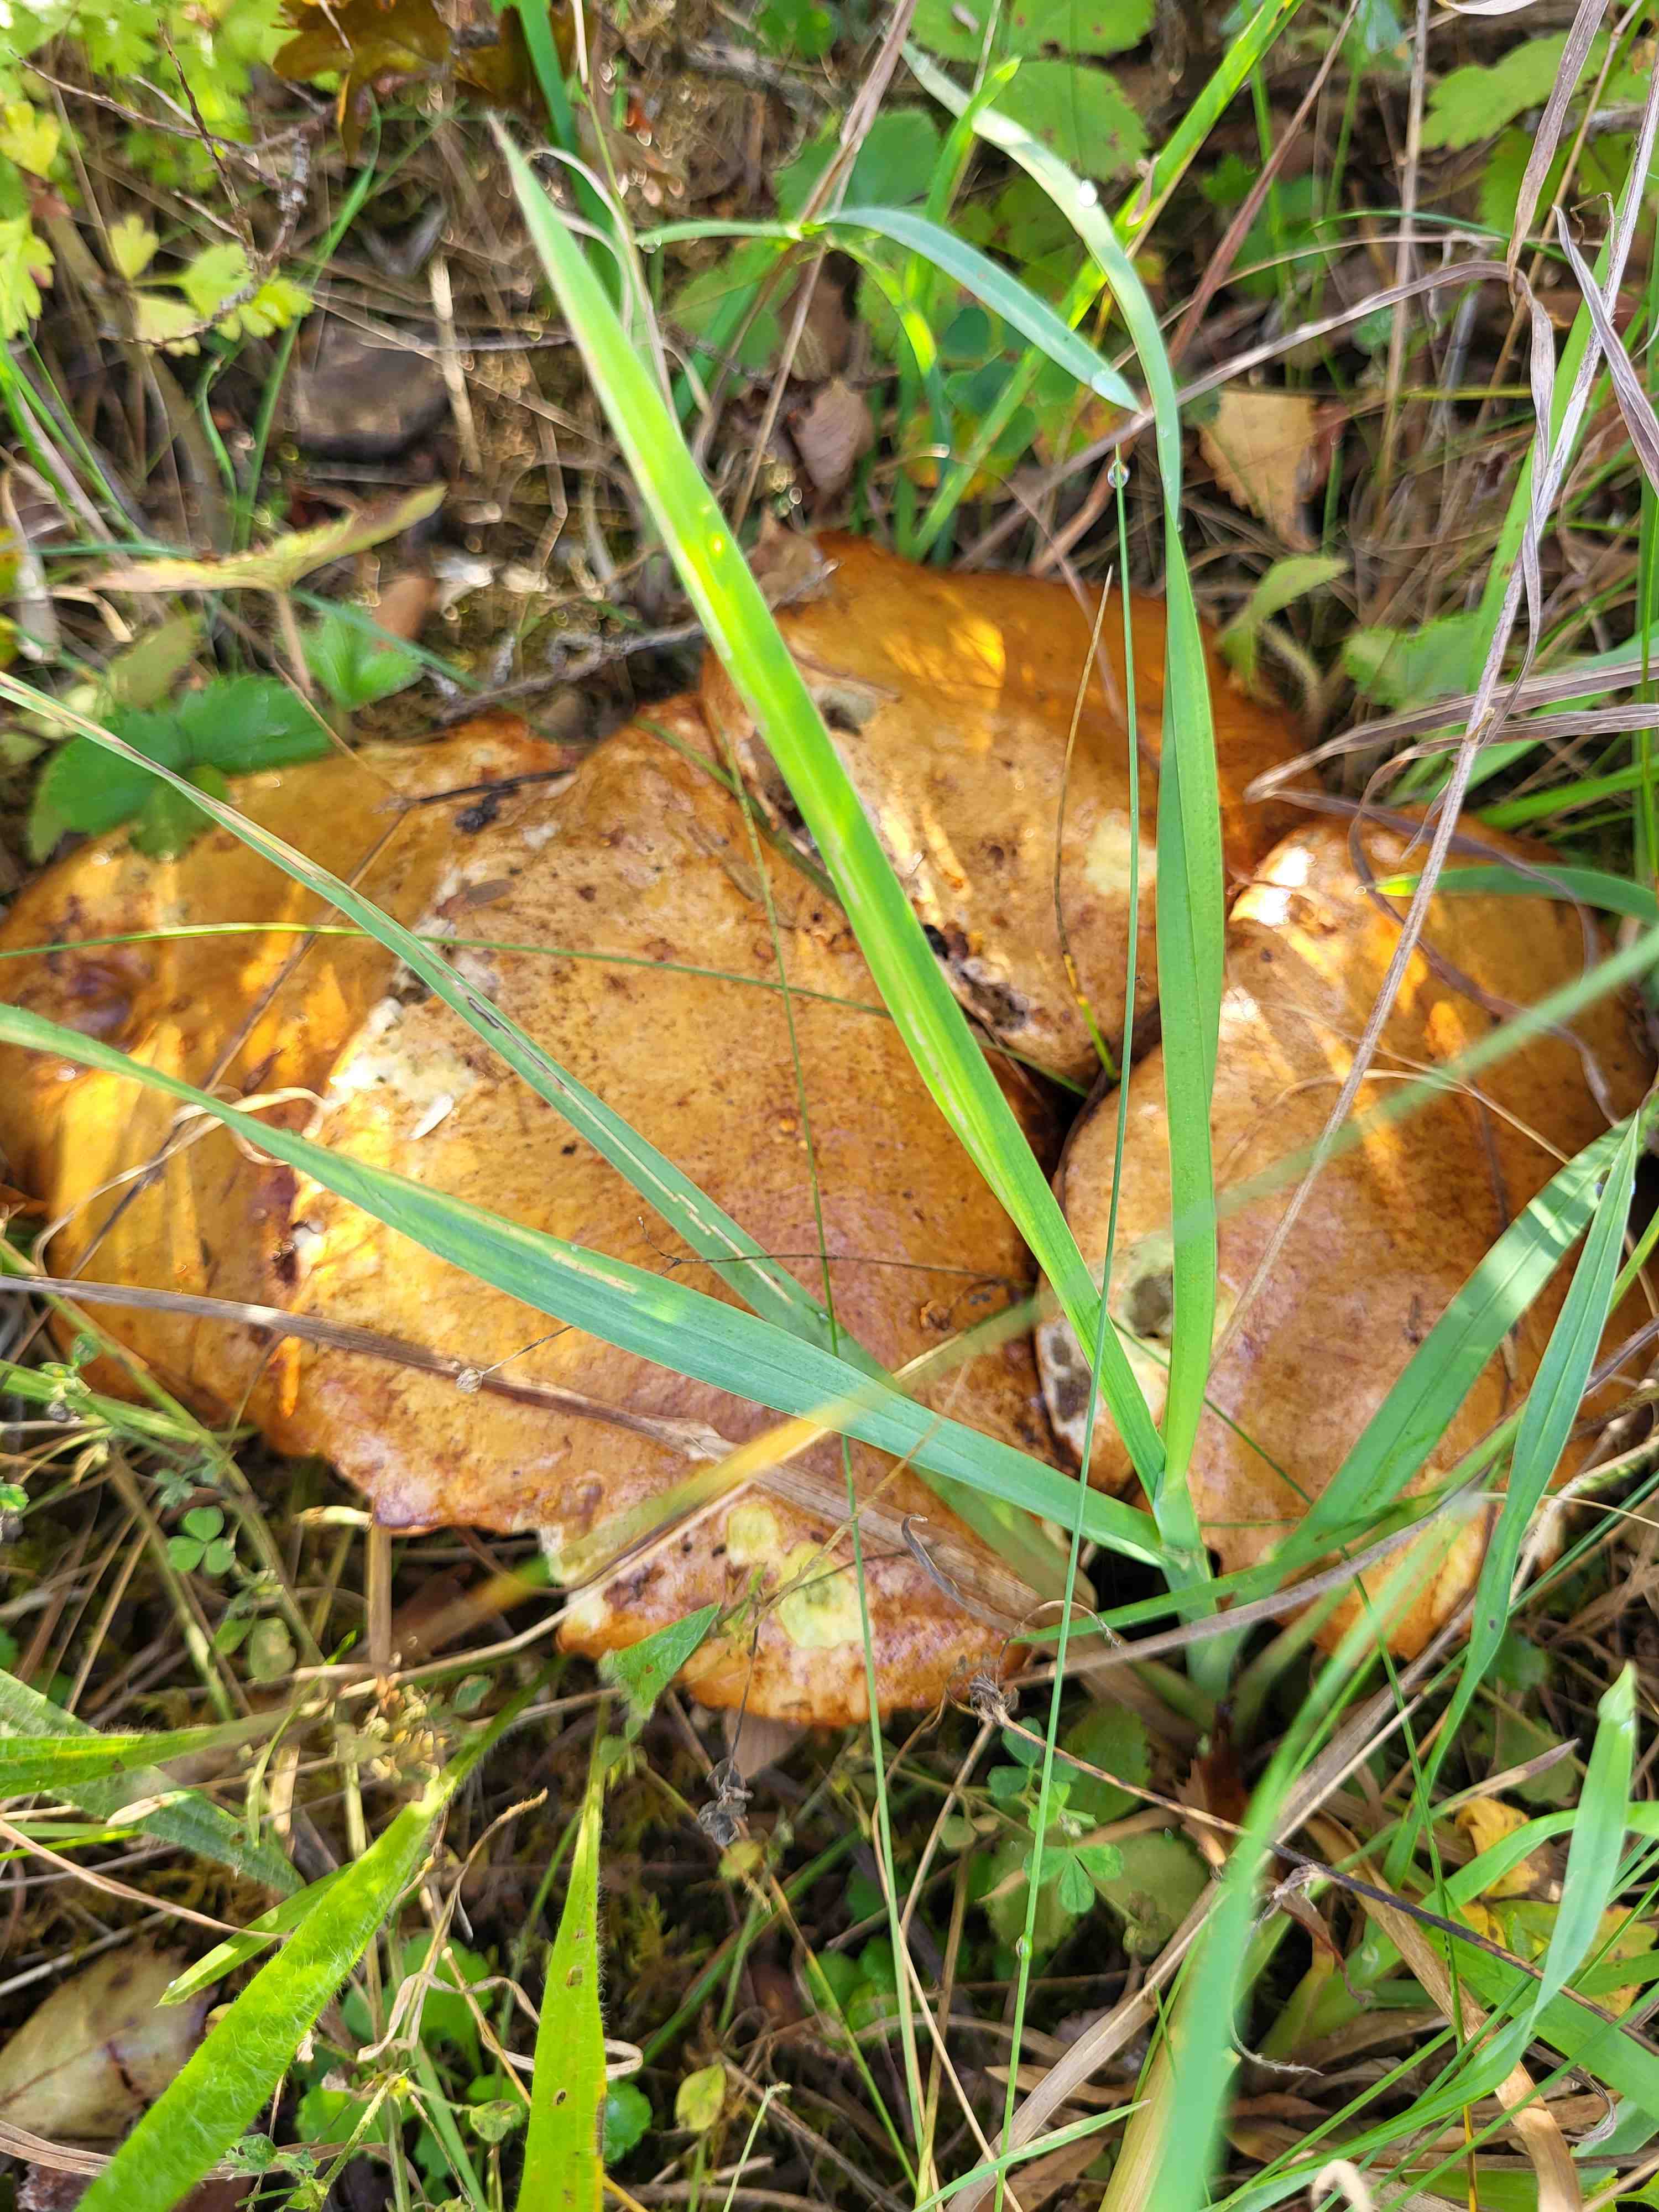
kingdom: Fungi
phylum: Basidiomycota
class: Agaricomycetes
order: Boletales
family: Suillaceae
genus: Suillus
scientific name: Suillus granulatus
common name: kornet slimrørhat
